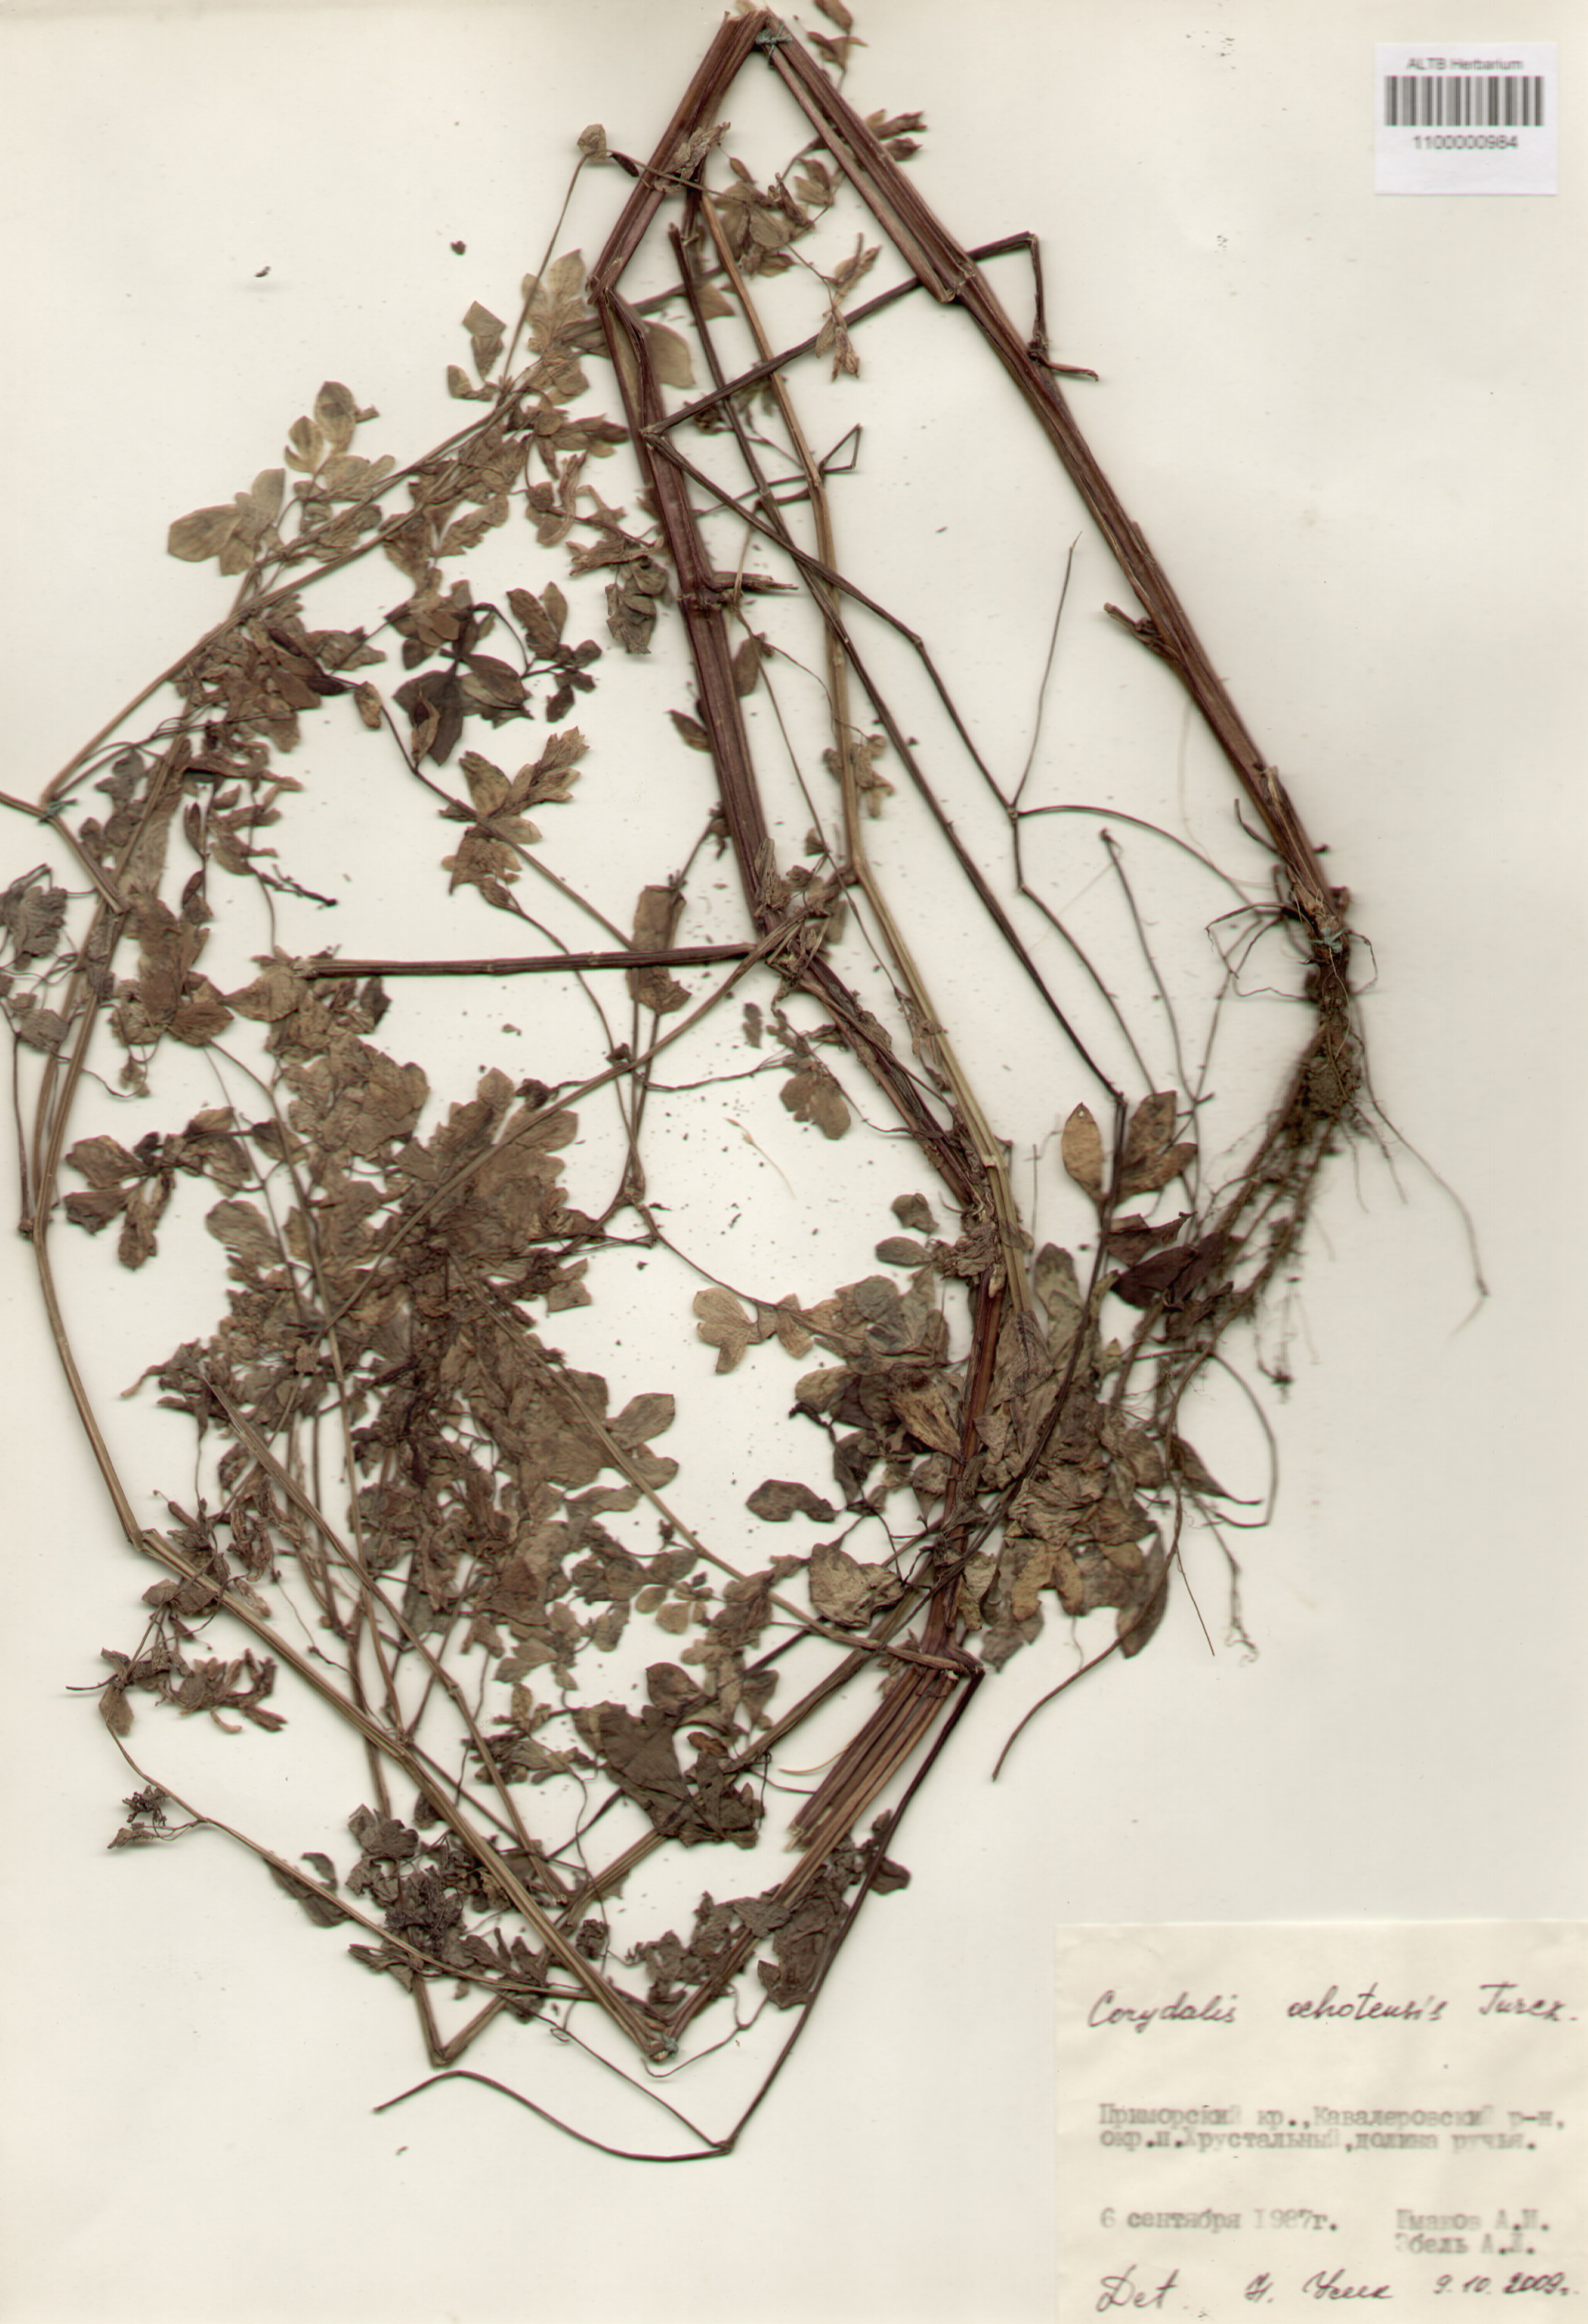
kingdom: Plantae
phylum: Tracheophyta
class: Magnoliopsida
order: Ranunculales
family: Papaveraceae
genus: Corydalis
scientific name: Corydalis ochotensis
